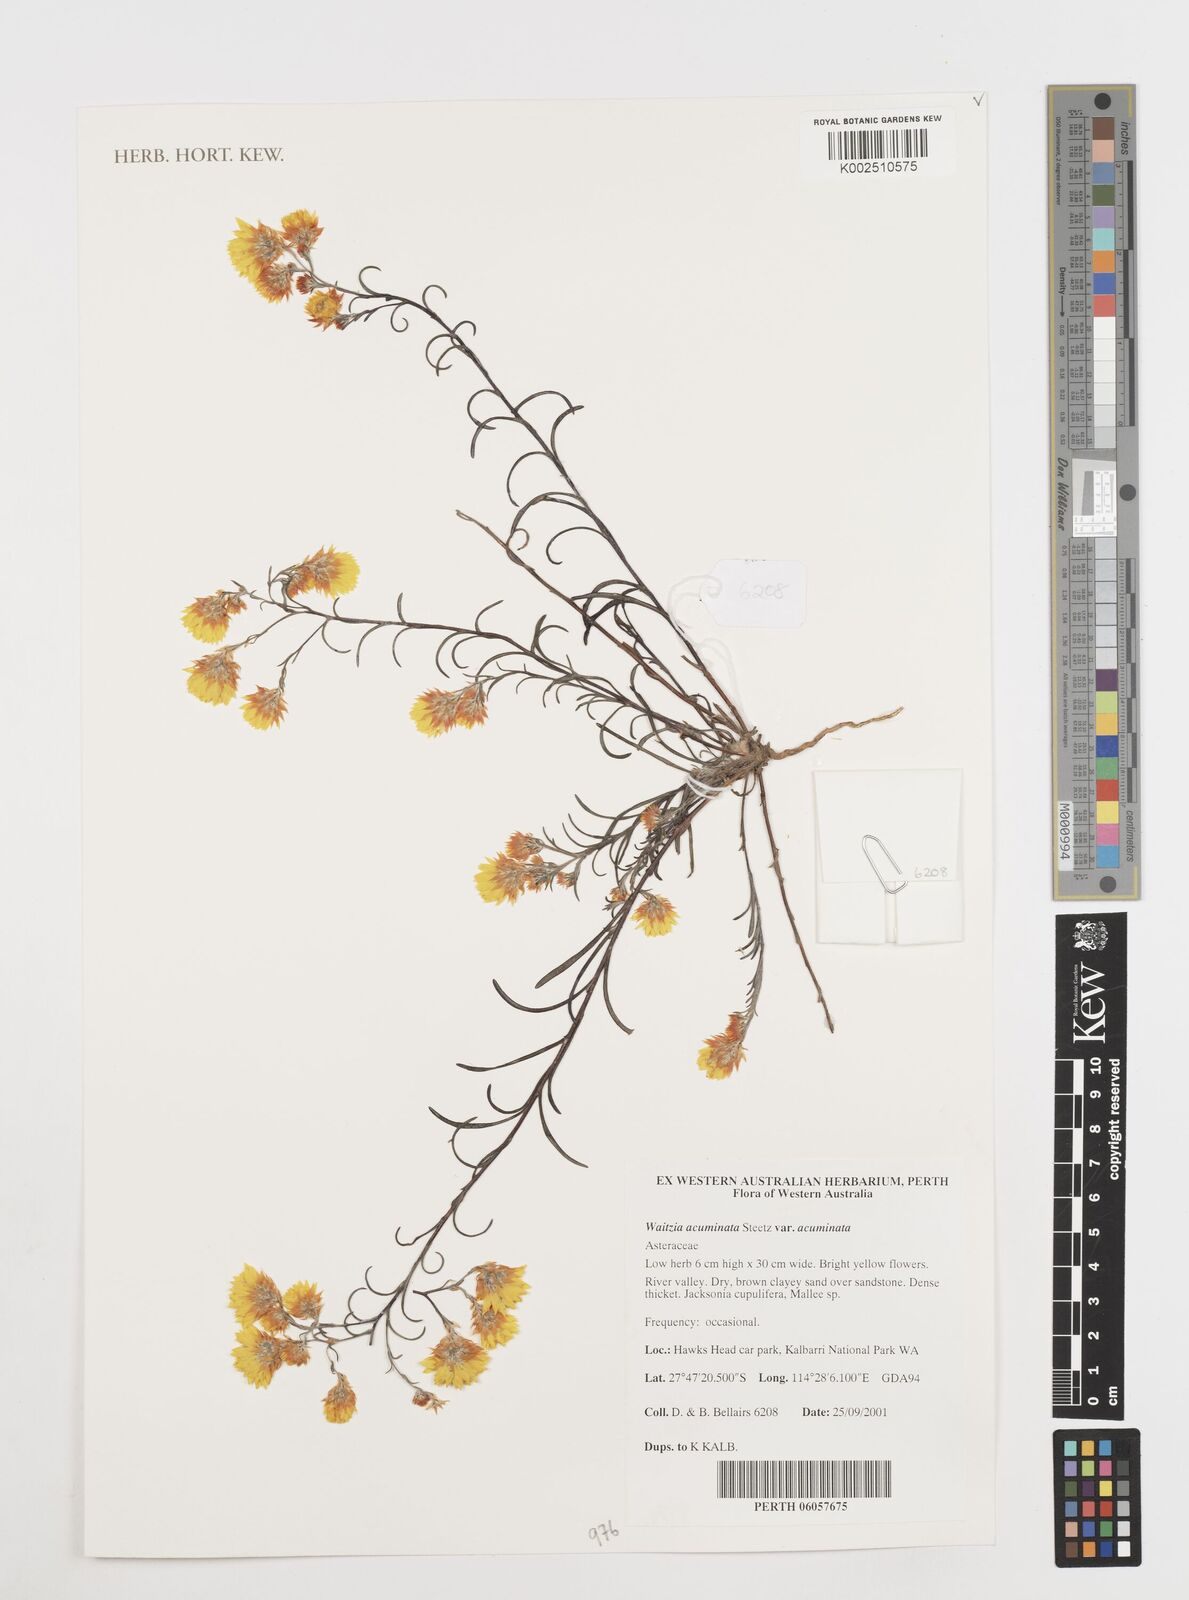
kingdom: Plantae
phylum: Tracheophyta
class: Magnoliopsida
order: Asterales
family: Asteraceae
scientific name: Asteraceae
